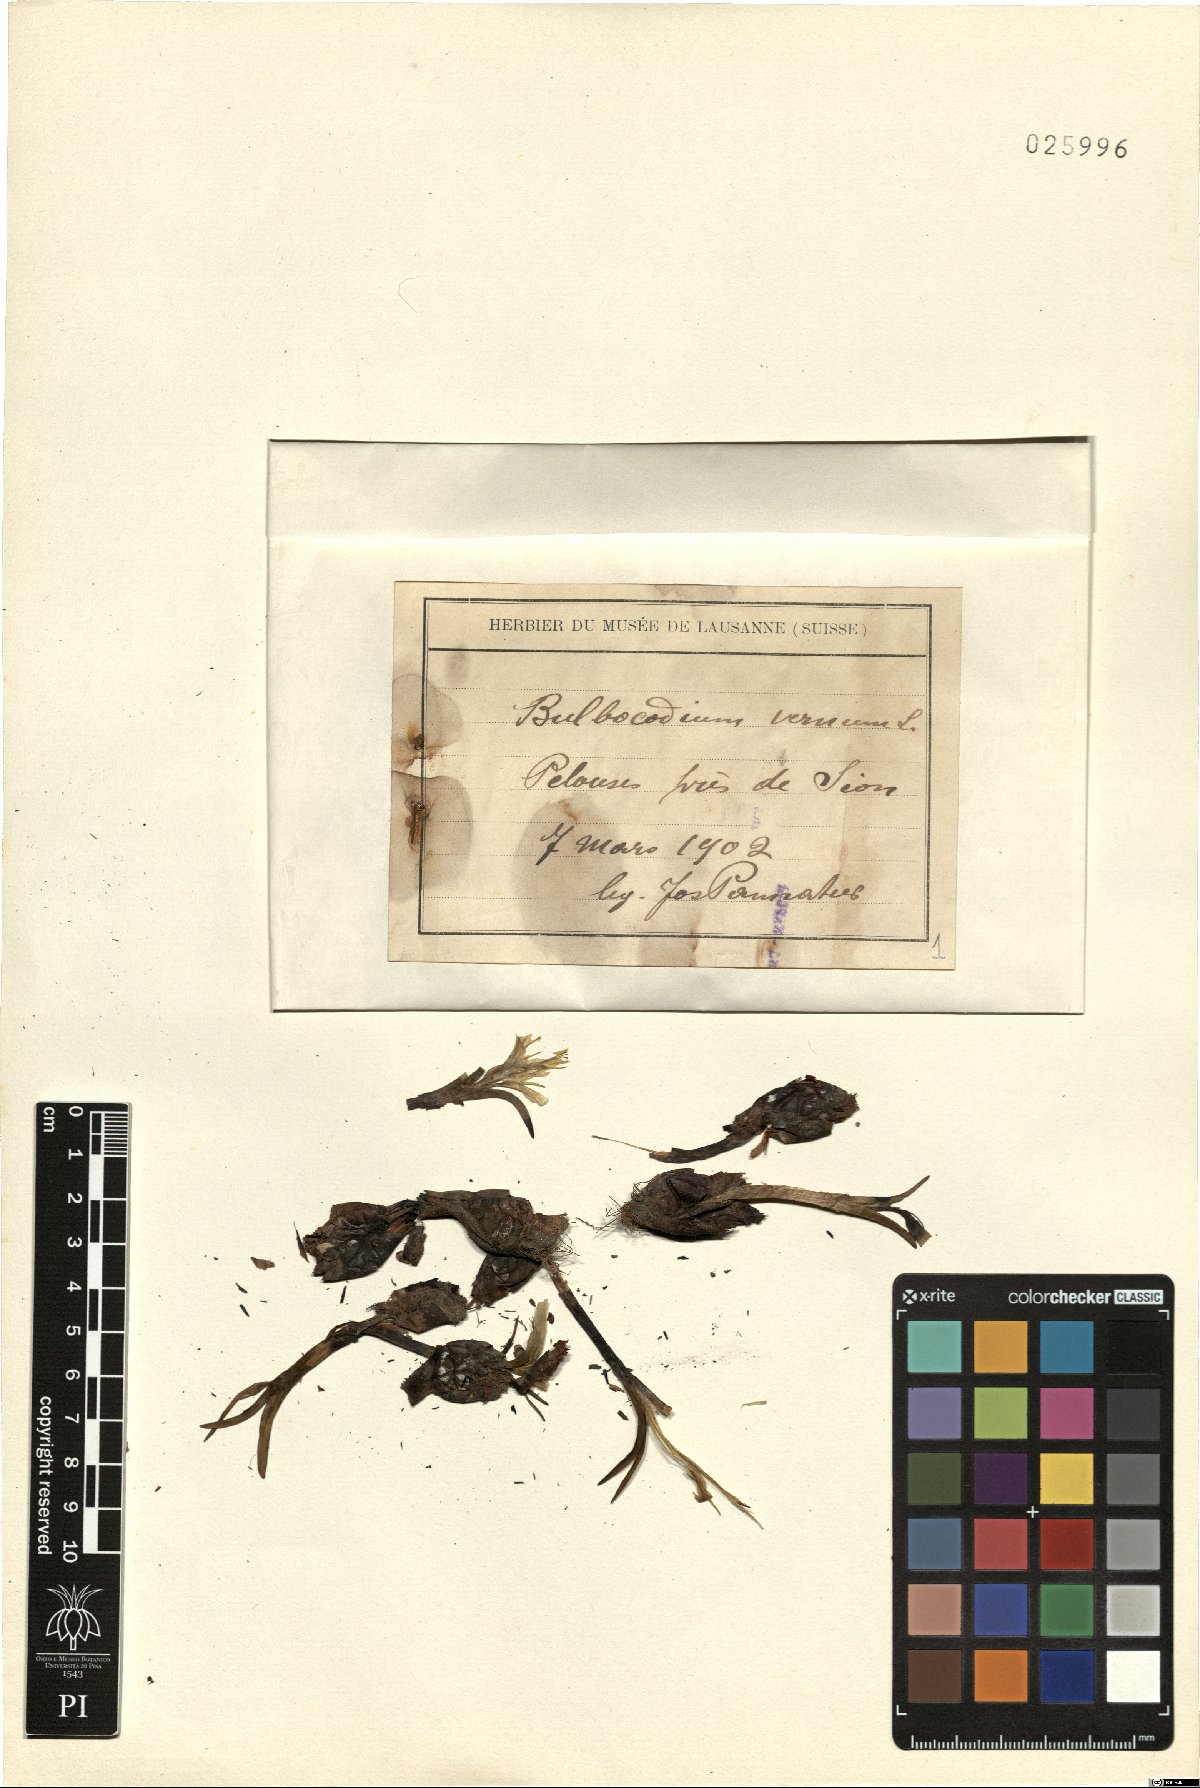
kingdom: Plantae
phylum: Tracheophyta
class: Liliopsida
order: Liliales
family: Colchicaceae
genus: Colchicum
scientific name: Colchicum bulbocodium
